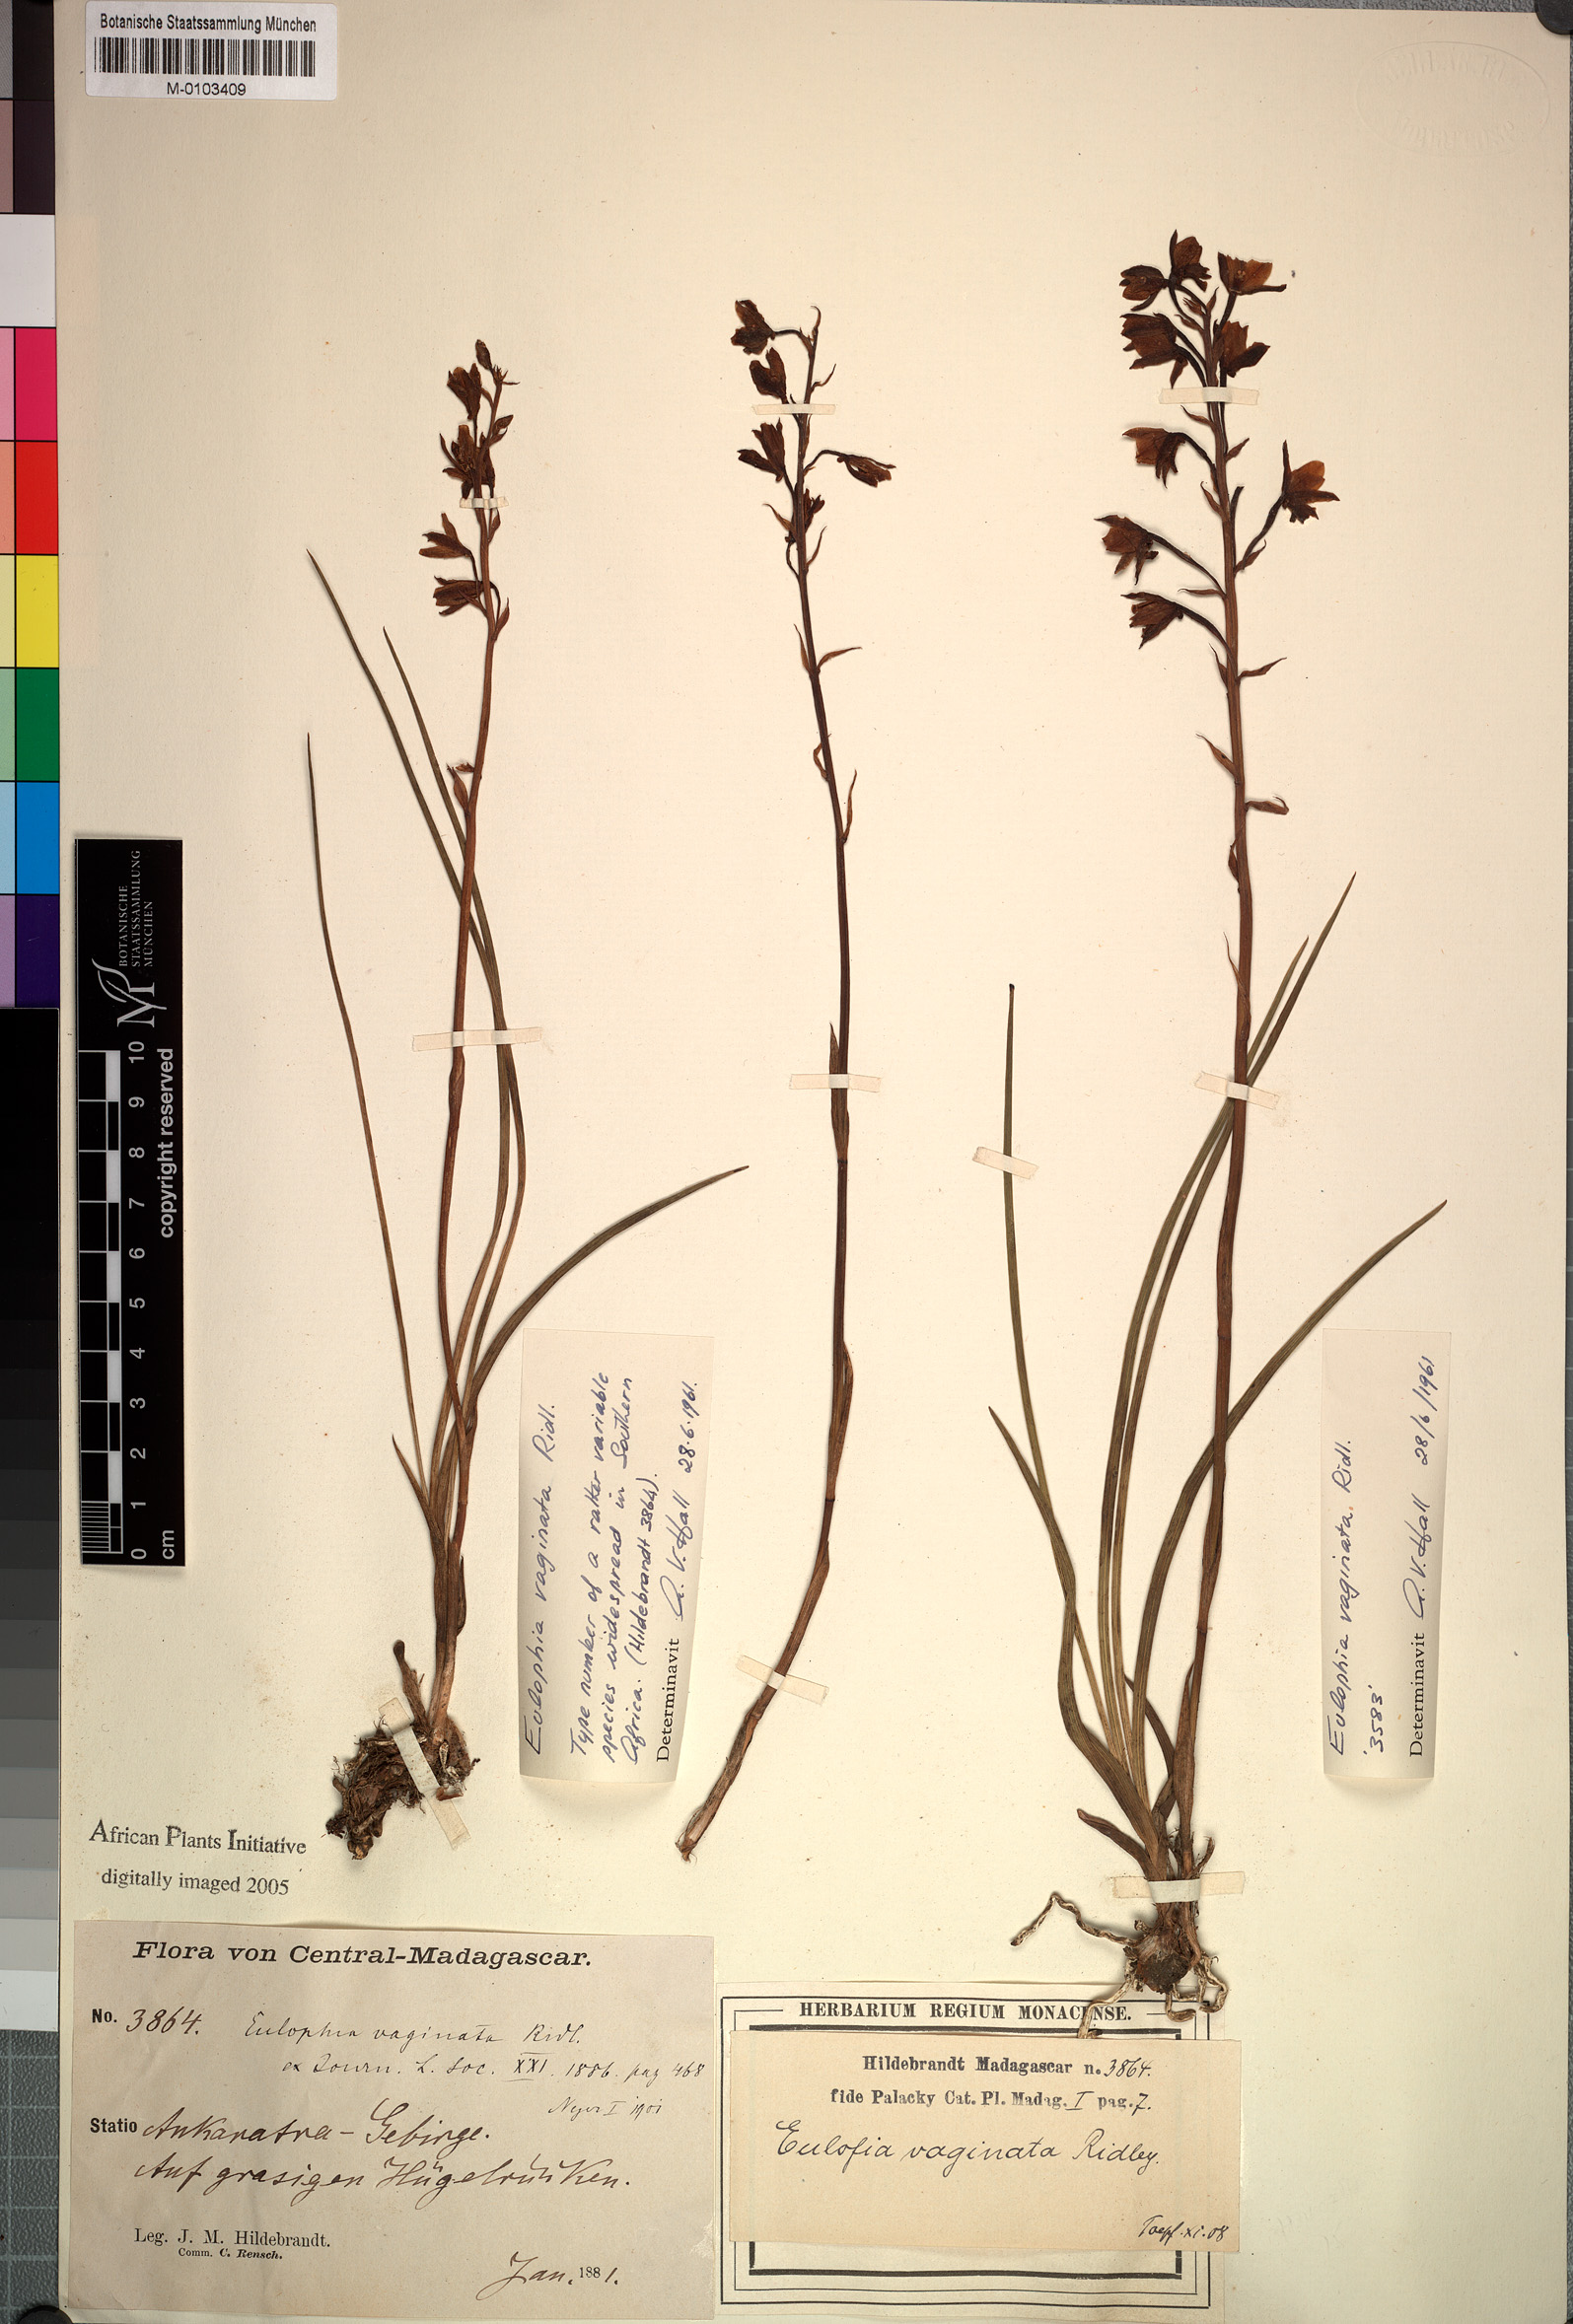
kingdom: Plantae
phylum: Tracheophyta
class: Liliopsida
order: Asparagales
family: Orchidaceae
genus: Eulophia
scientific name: Eulophia hians
